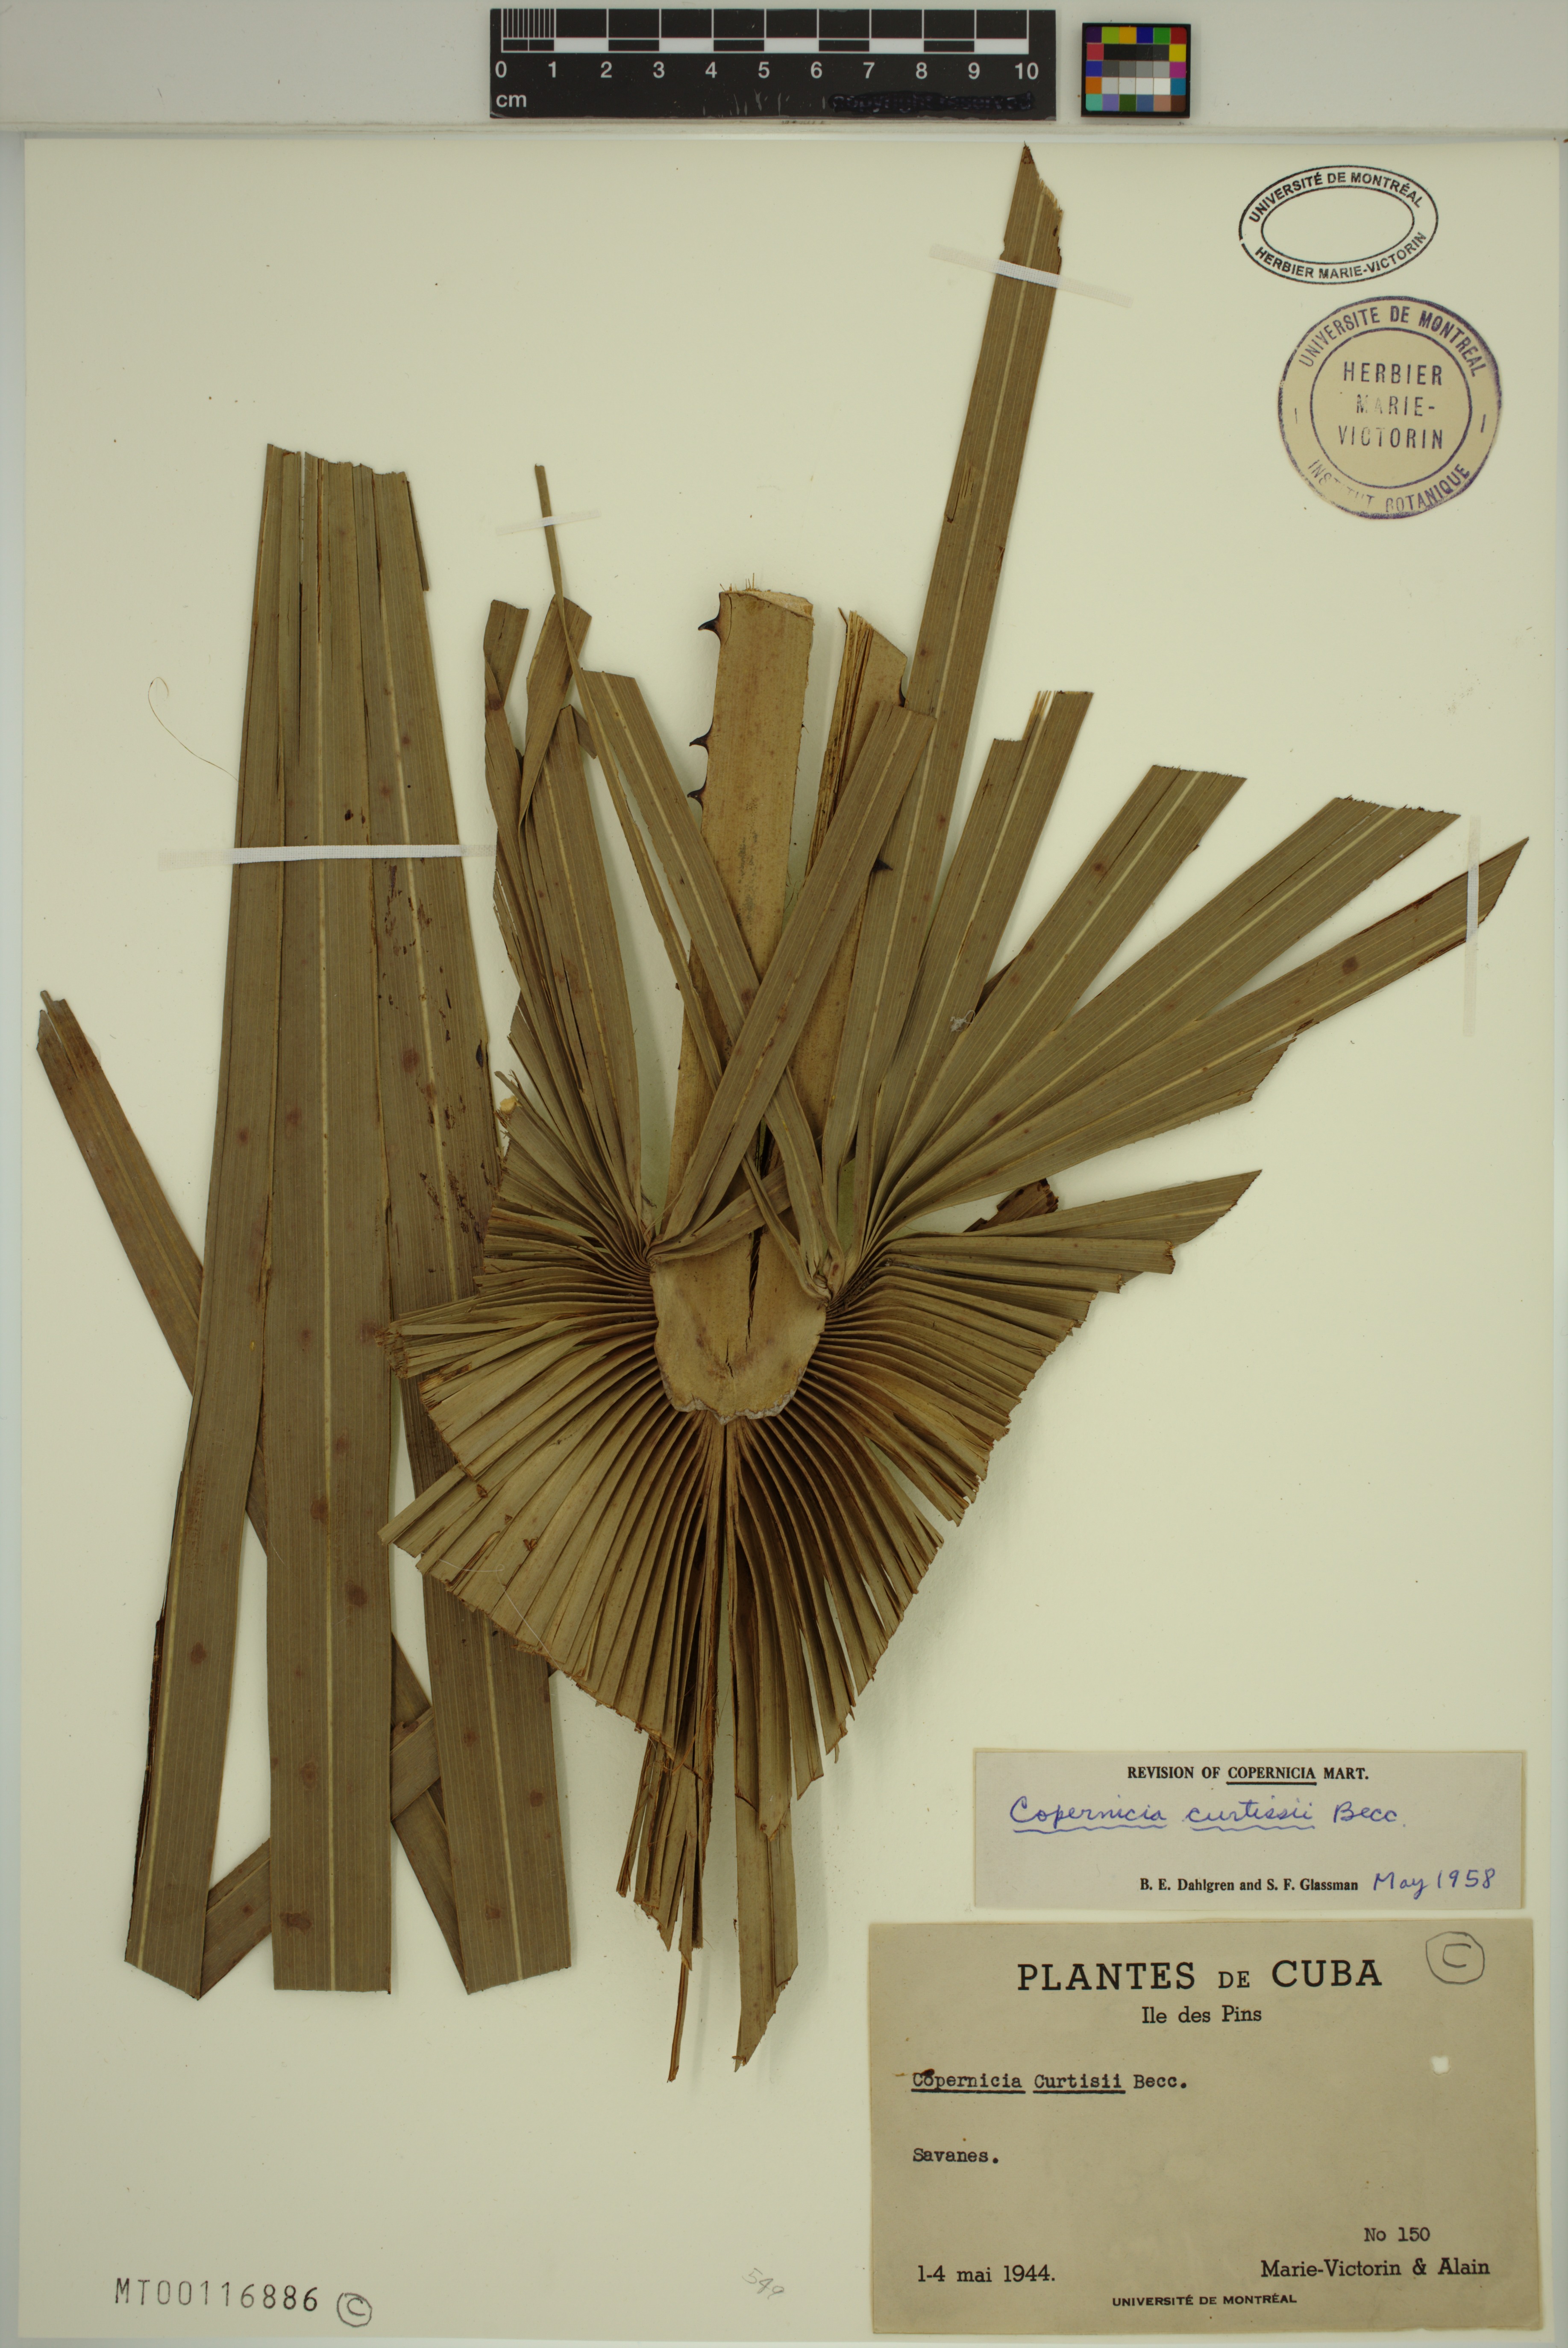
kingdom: Plantae
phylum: Tracheophyta
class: Liliopsida
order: Arecales
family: Arecaceae
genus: Copernicia
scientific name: Copernicia curtissii
